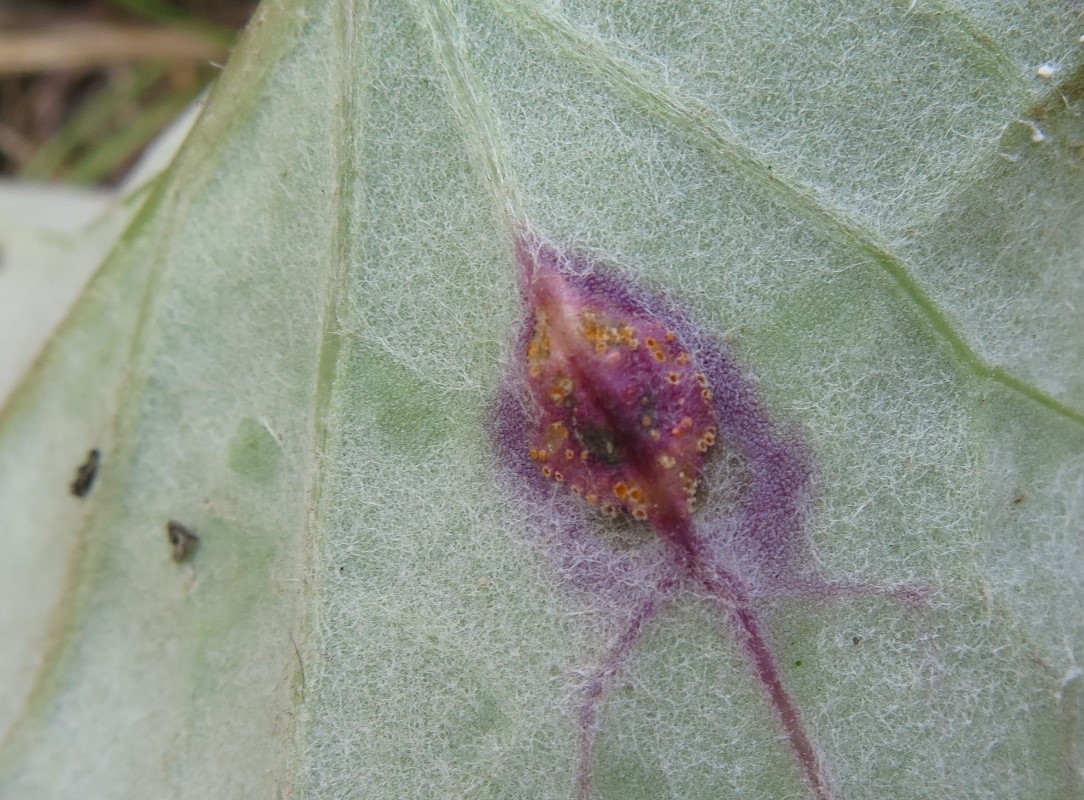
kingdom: Fungi
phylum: Basidiomycota
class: Pucciniomycetes
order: Pucciniales
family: Pucciniaceae
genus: Puccinia
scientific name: Puccinia poarum
